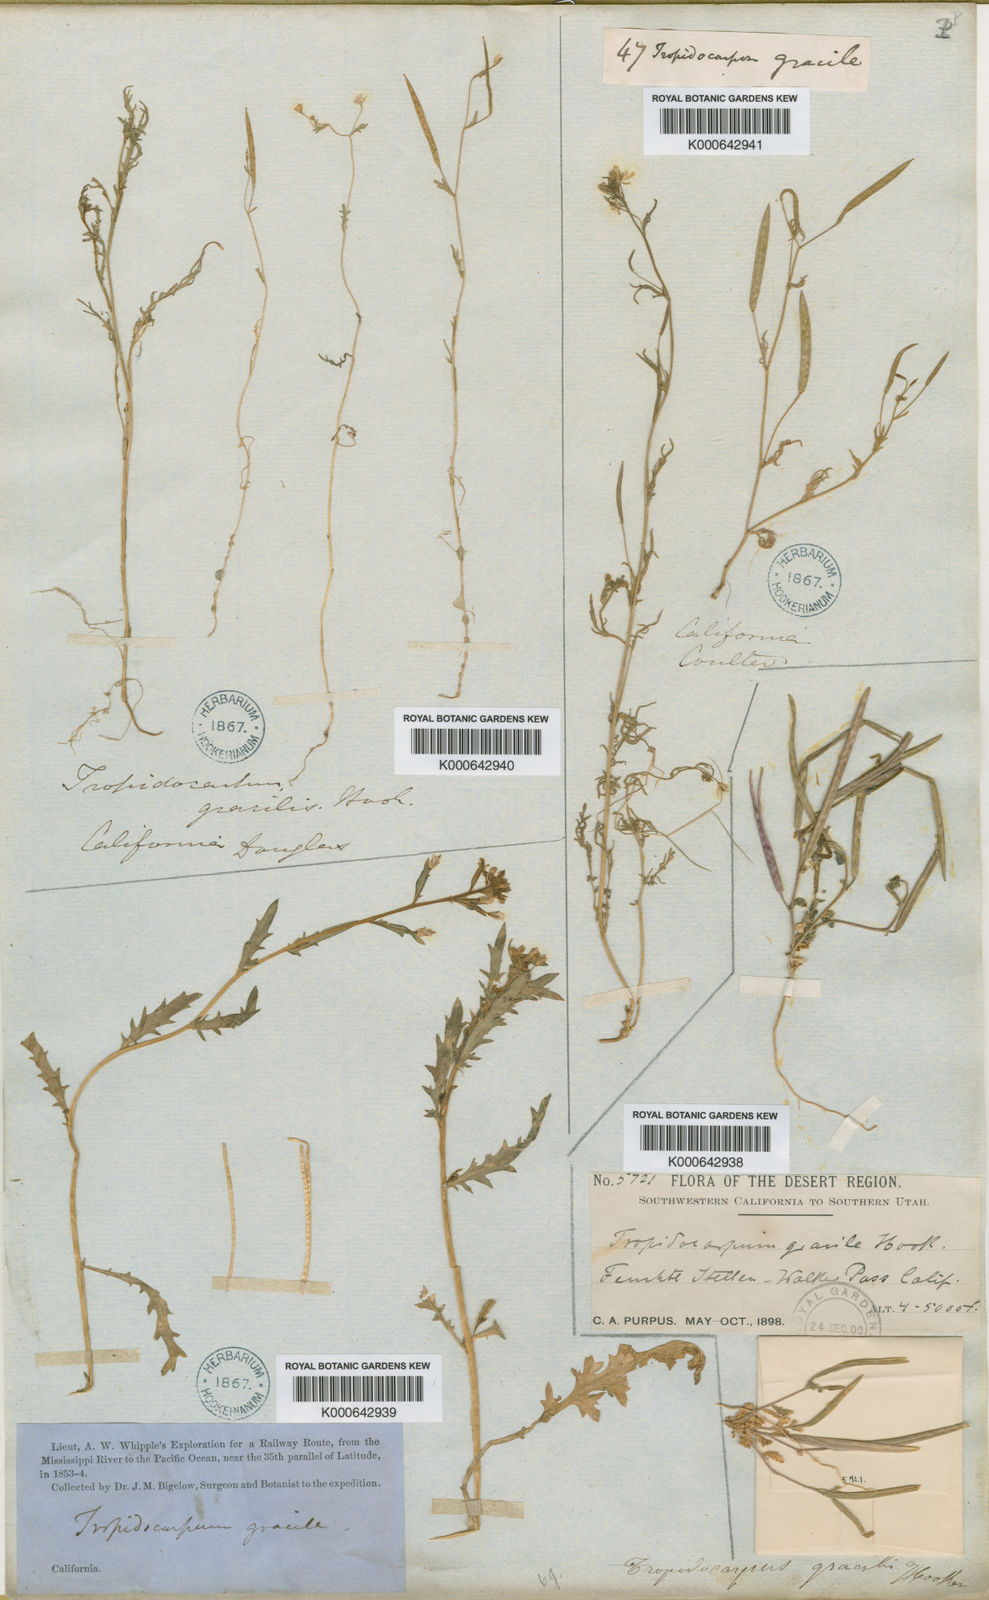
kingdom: Plantae
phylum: Tracheophyta
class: Magnoliopsida
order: Brassicales
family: Brassicaceae
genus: Tropidocarpum
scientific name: Tropidocarpum gracile
